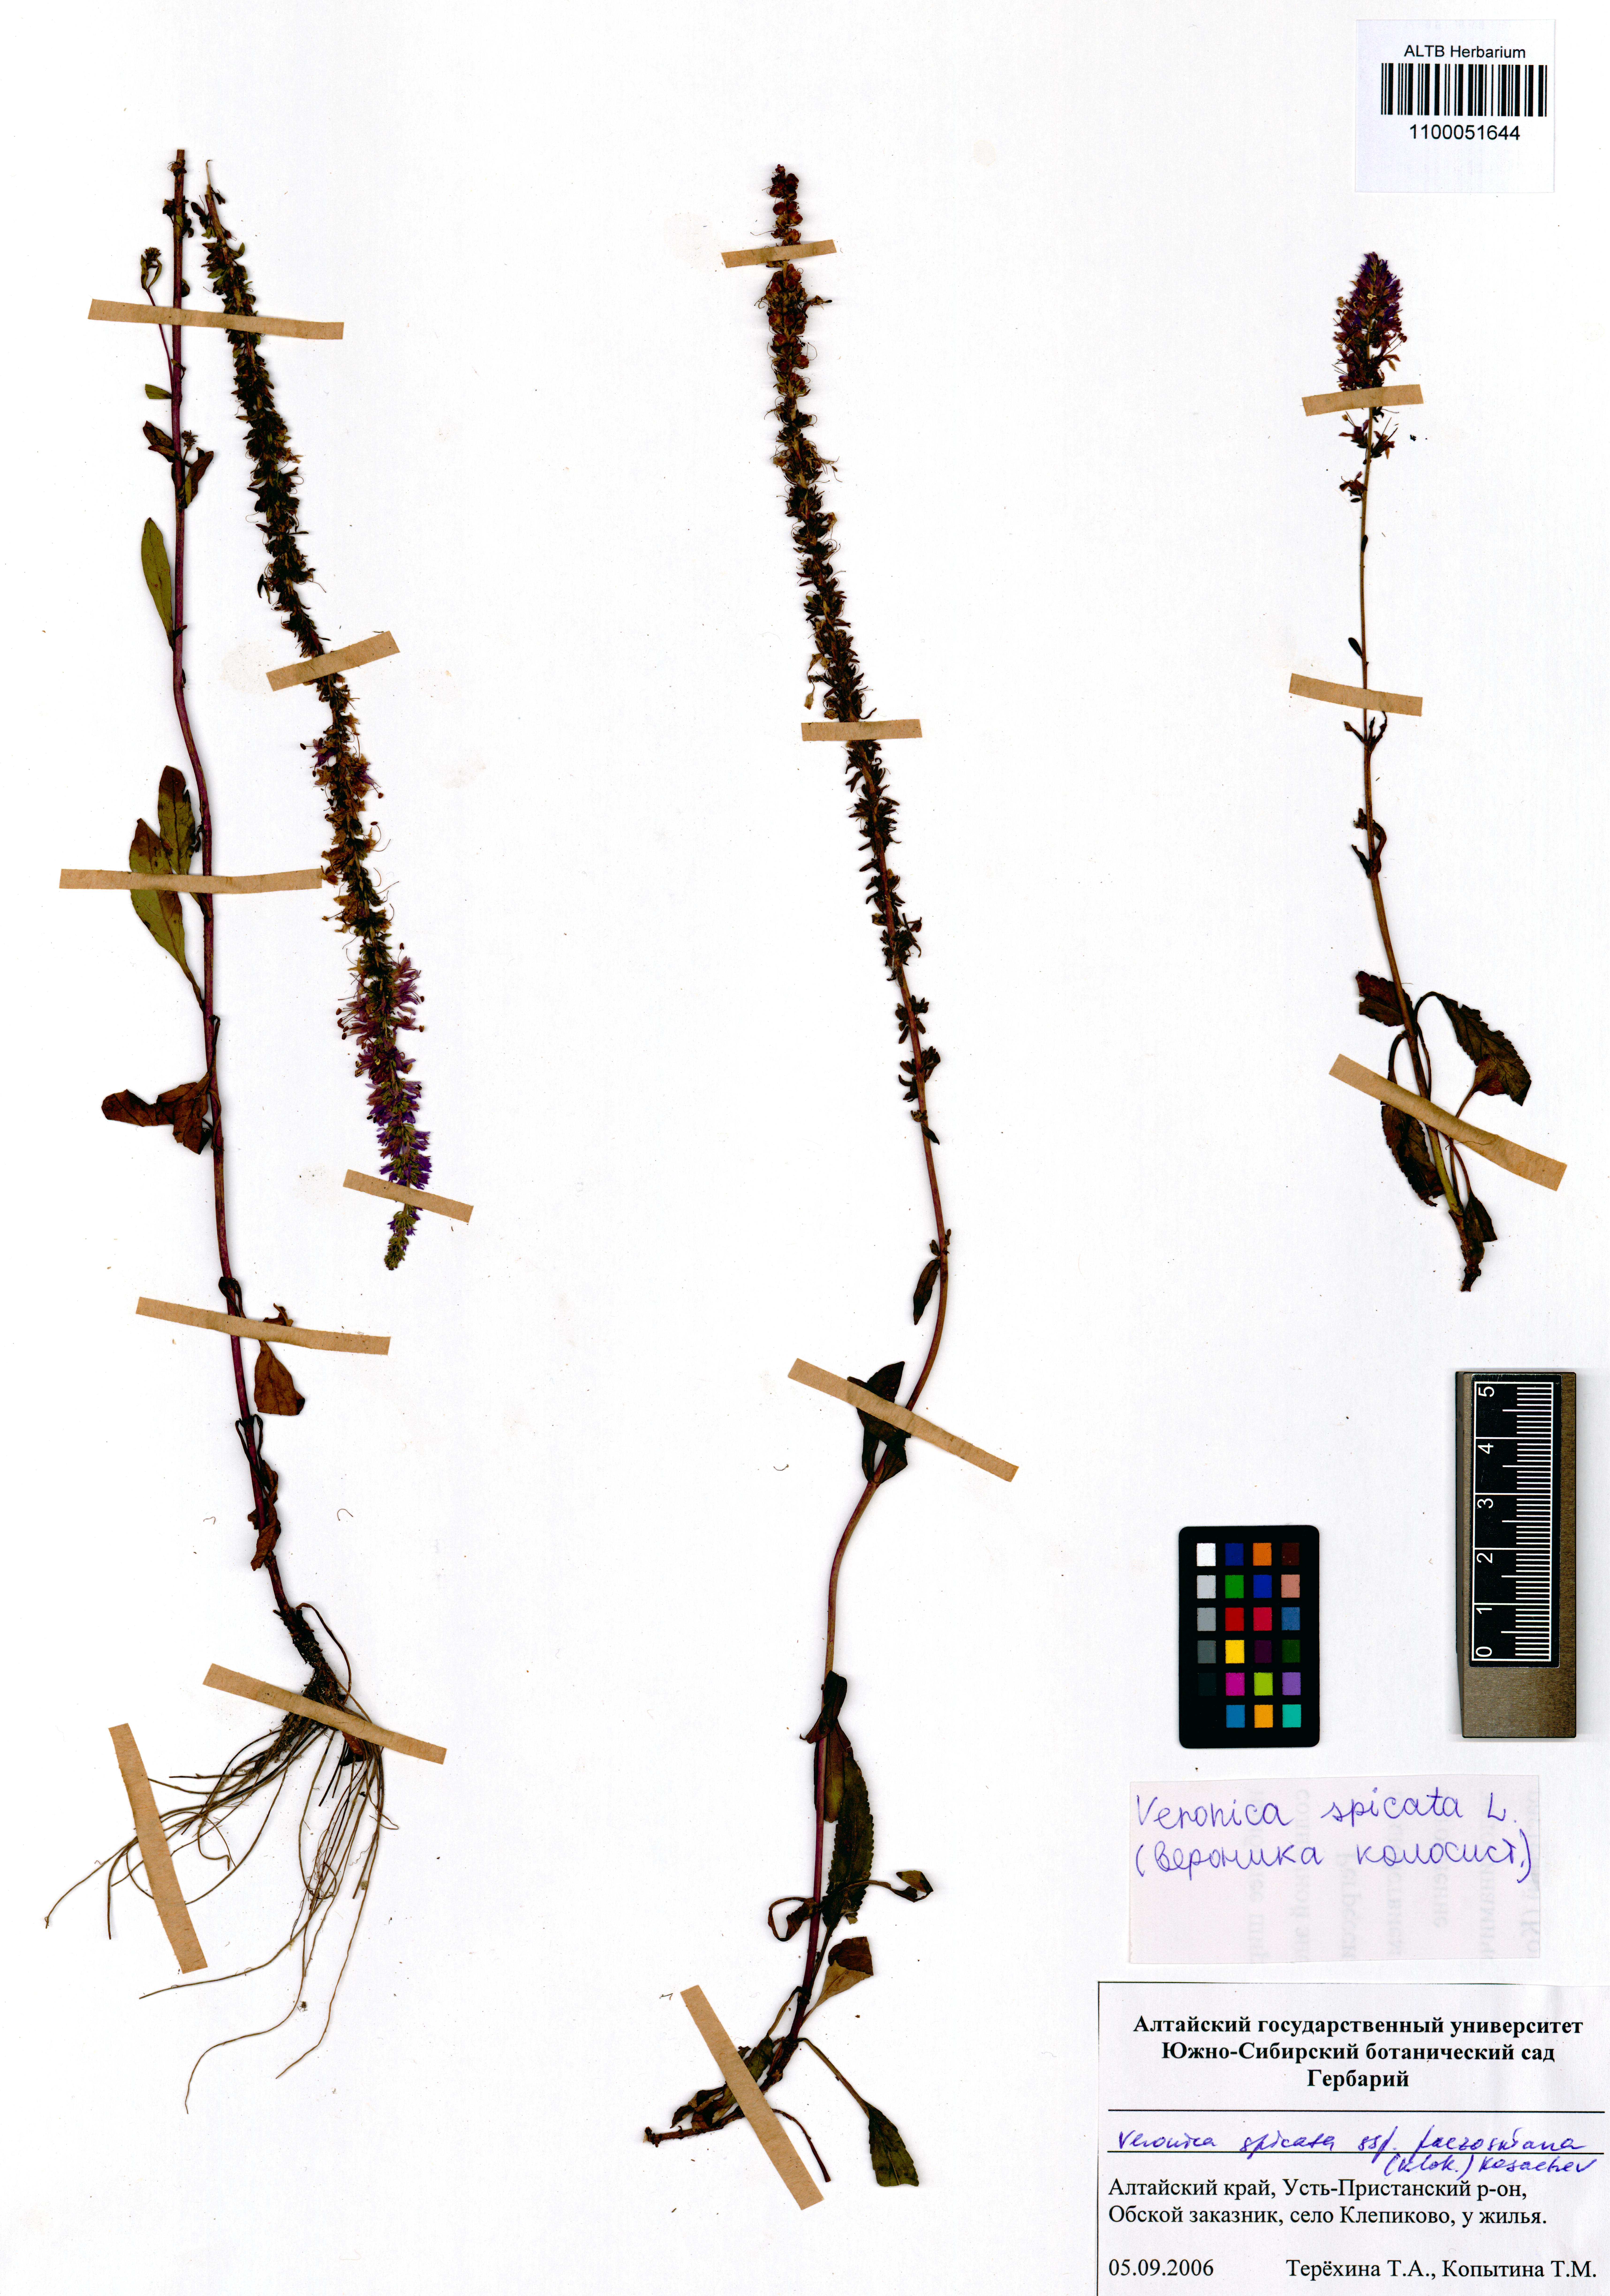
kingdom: Plantae
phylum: Tracheophyta
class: Magnoliopsida
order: Lamiales
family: Plantaginaceae
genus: Veronica
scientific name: Veronica spicata
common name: Spiked speedwell
